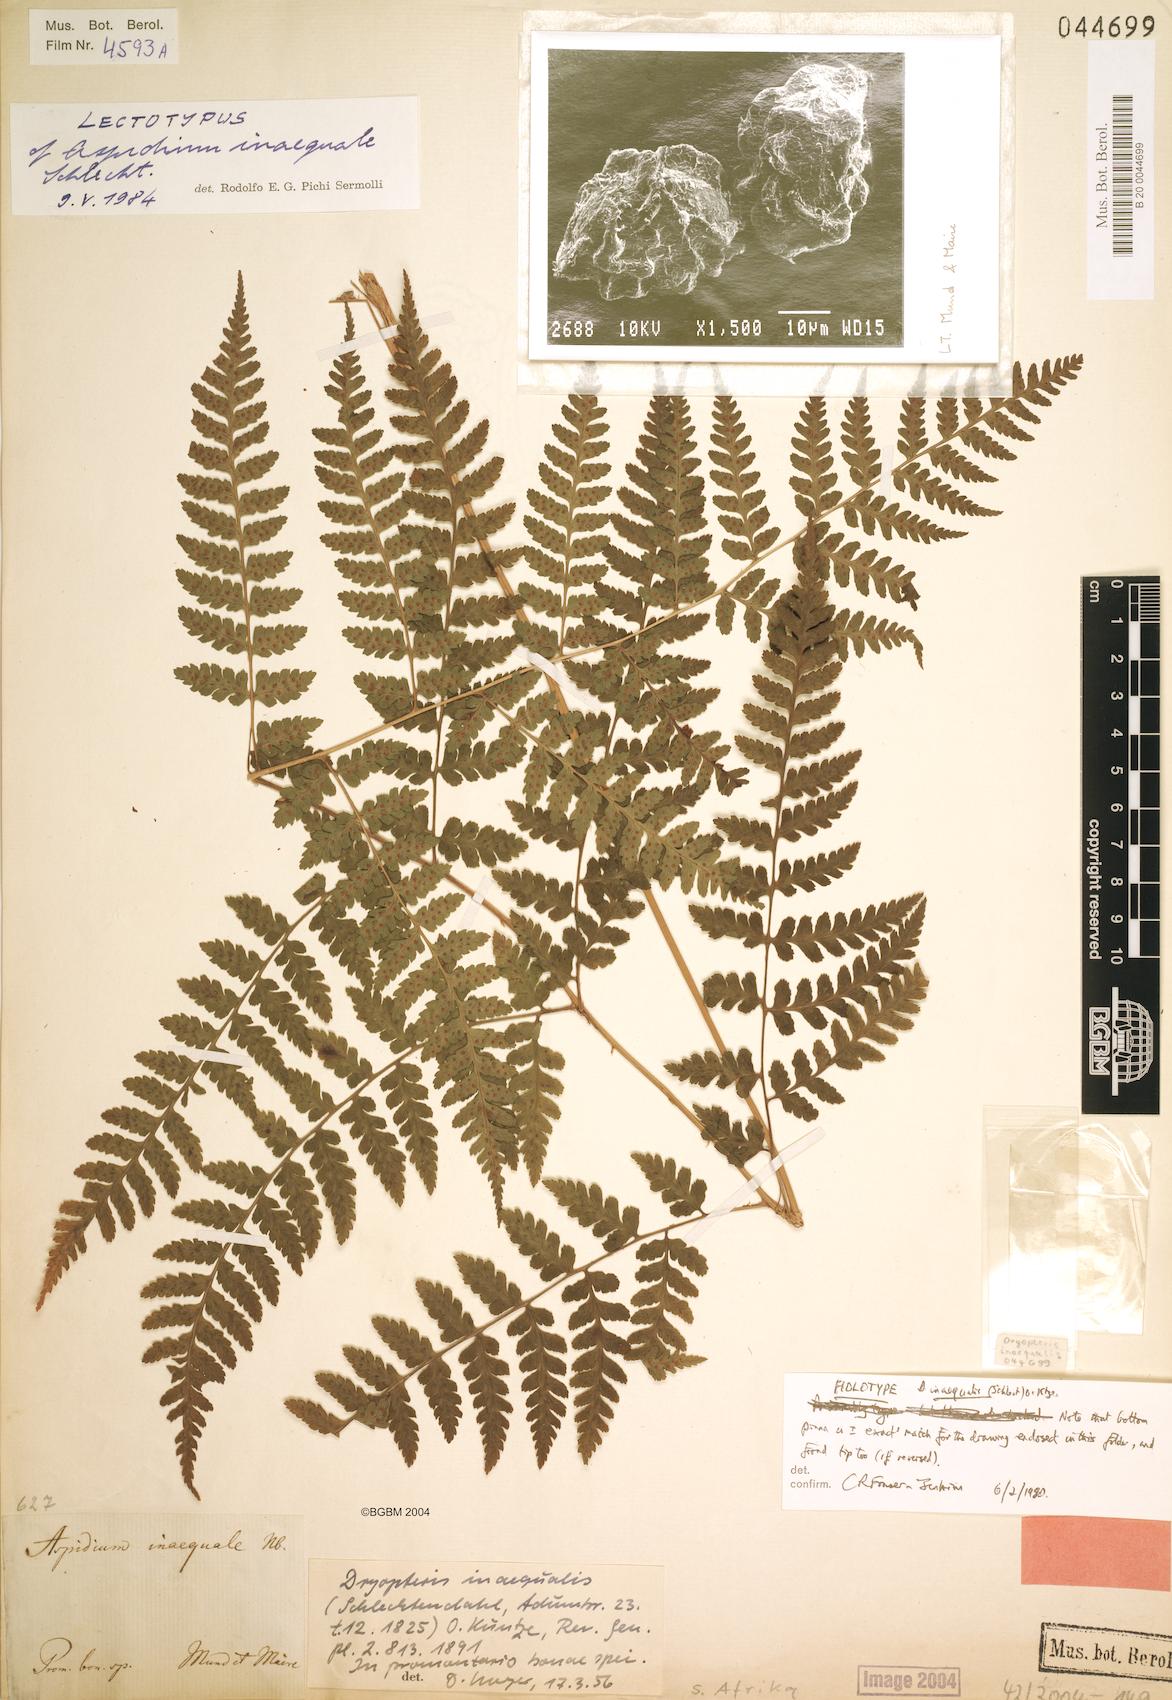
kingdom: Plantae
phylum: Tracheophyta
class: Polypodiopsida
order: Polypodiales
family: Dryopteridaceae
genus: Dryopteris
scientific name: Dryopteris inaequalis
